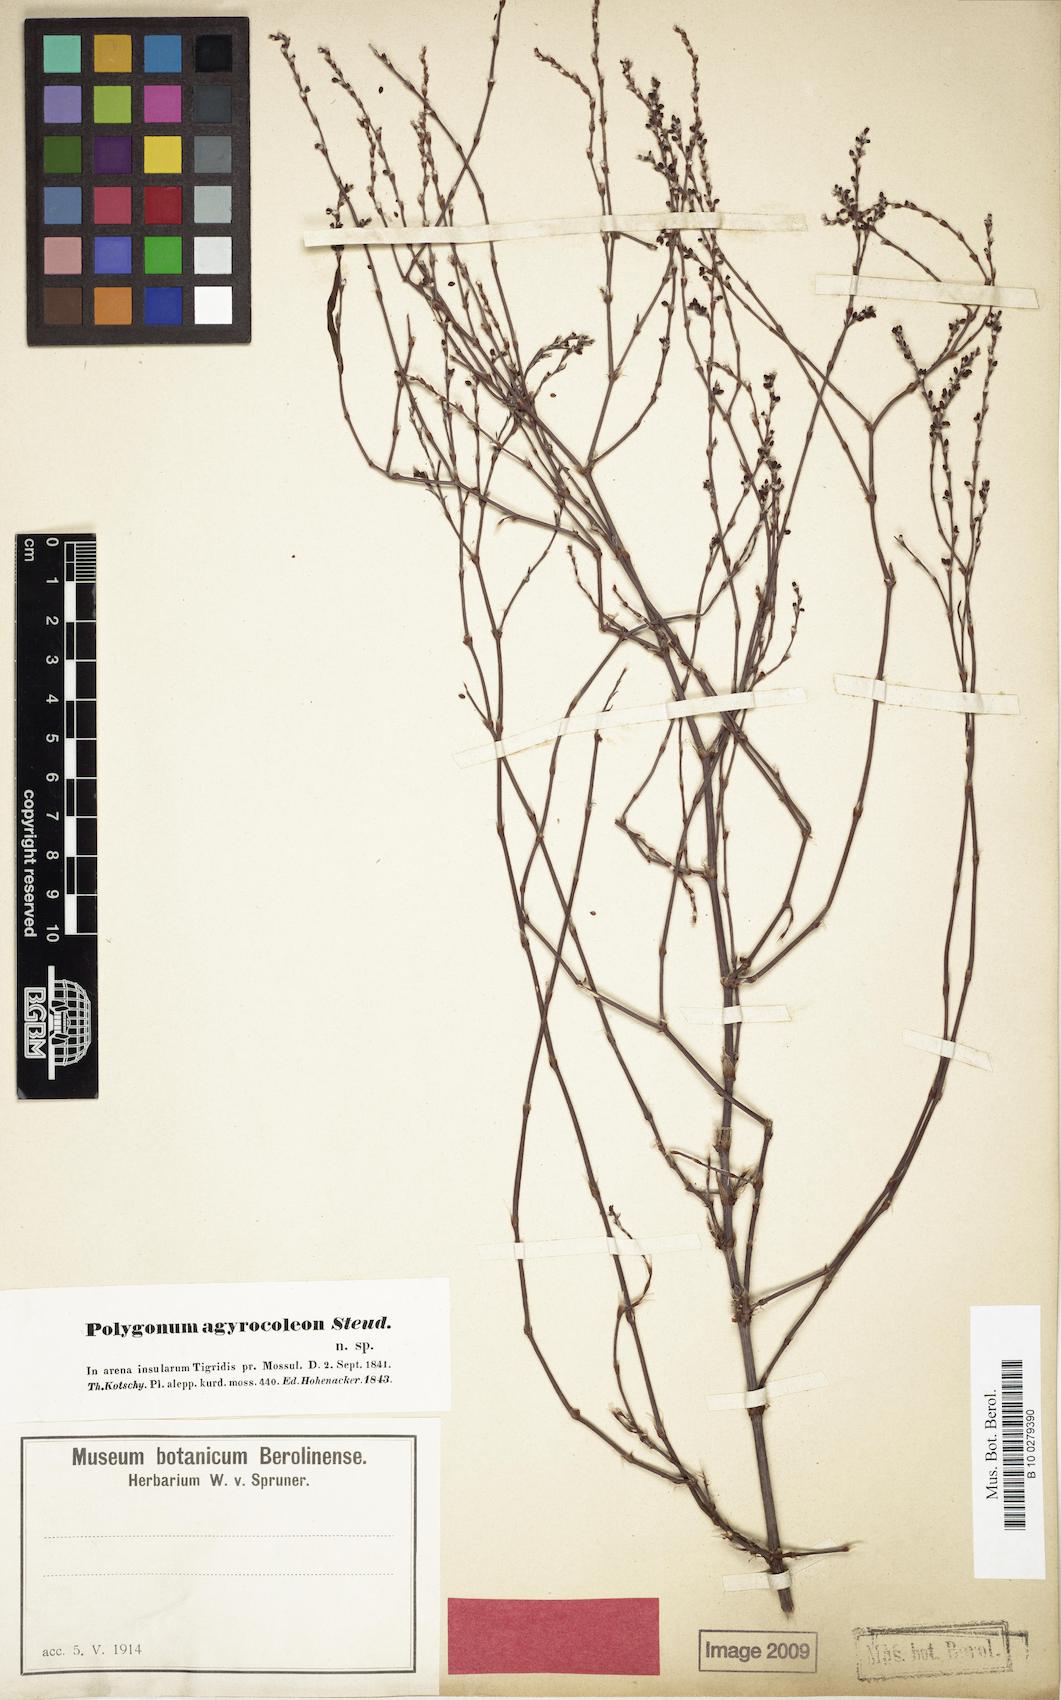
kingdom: Plantae
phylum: Tracheophyta
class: Magnoliopsida
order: Caryophyllales
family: Polygonaceae
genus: Polygonum
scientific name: Polygonum argyrocoleum
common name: Silversheath knotweed
